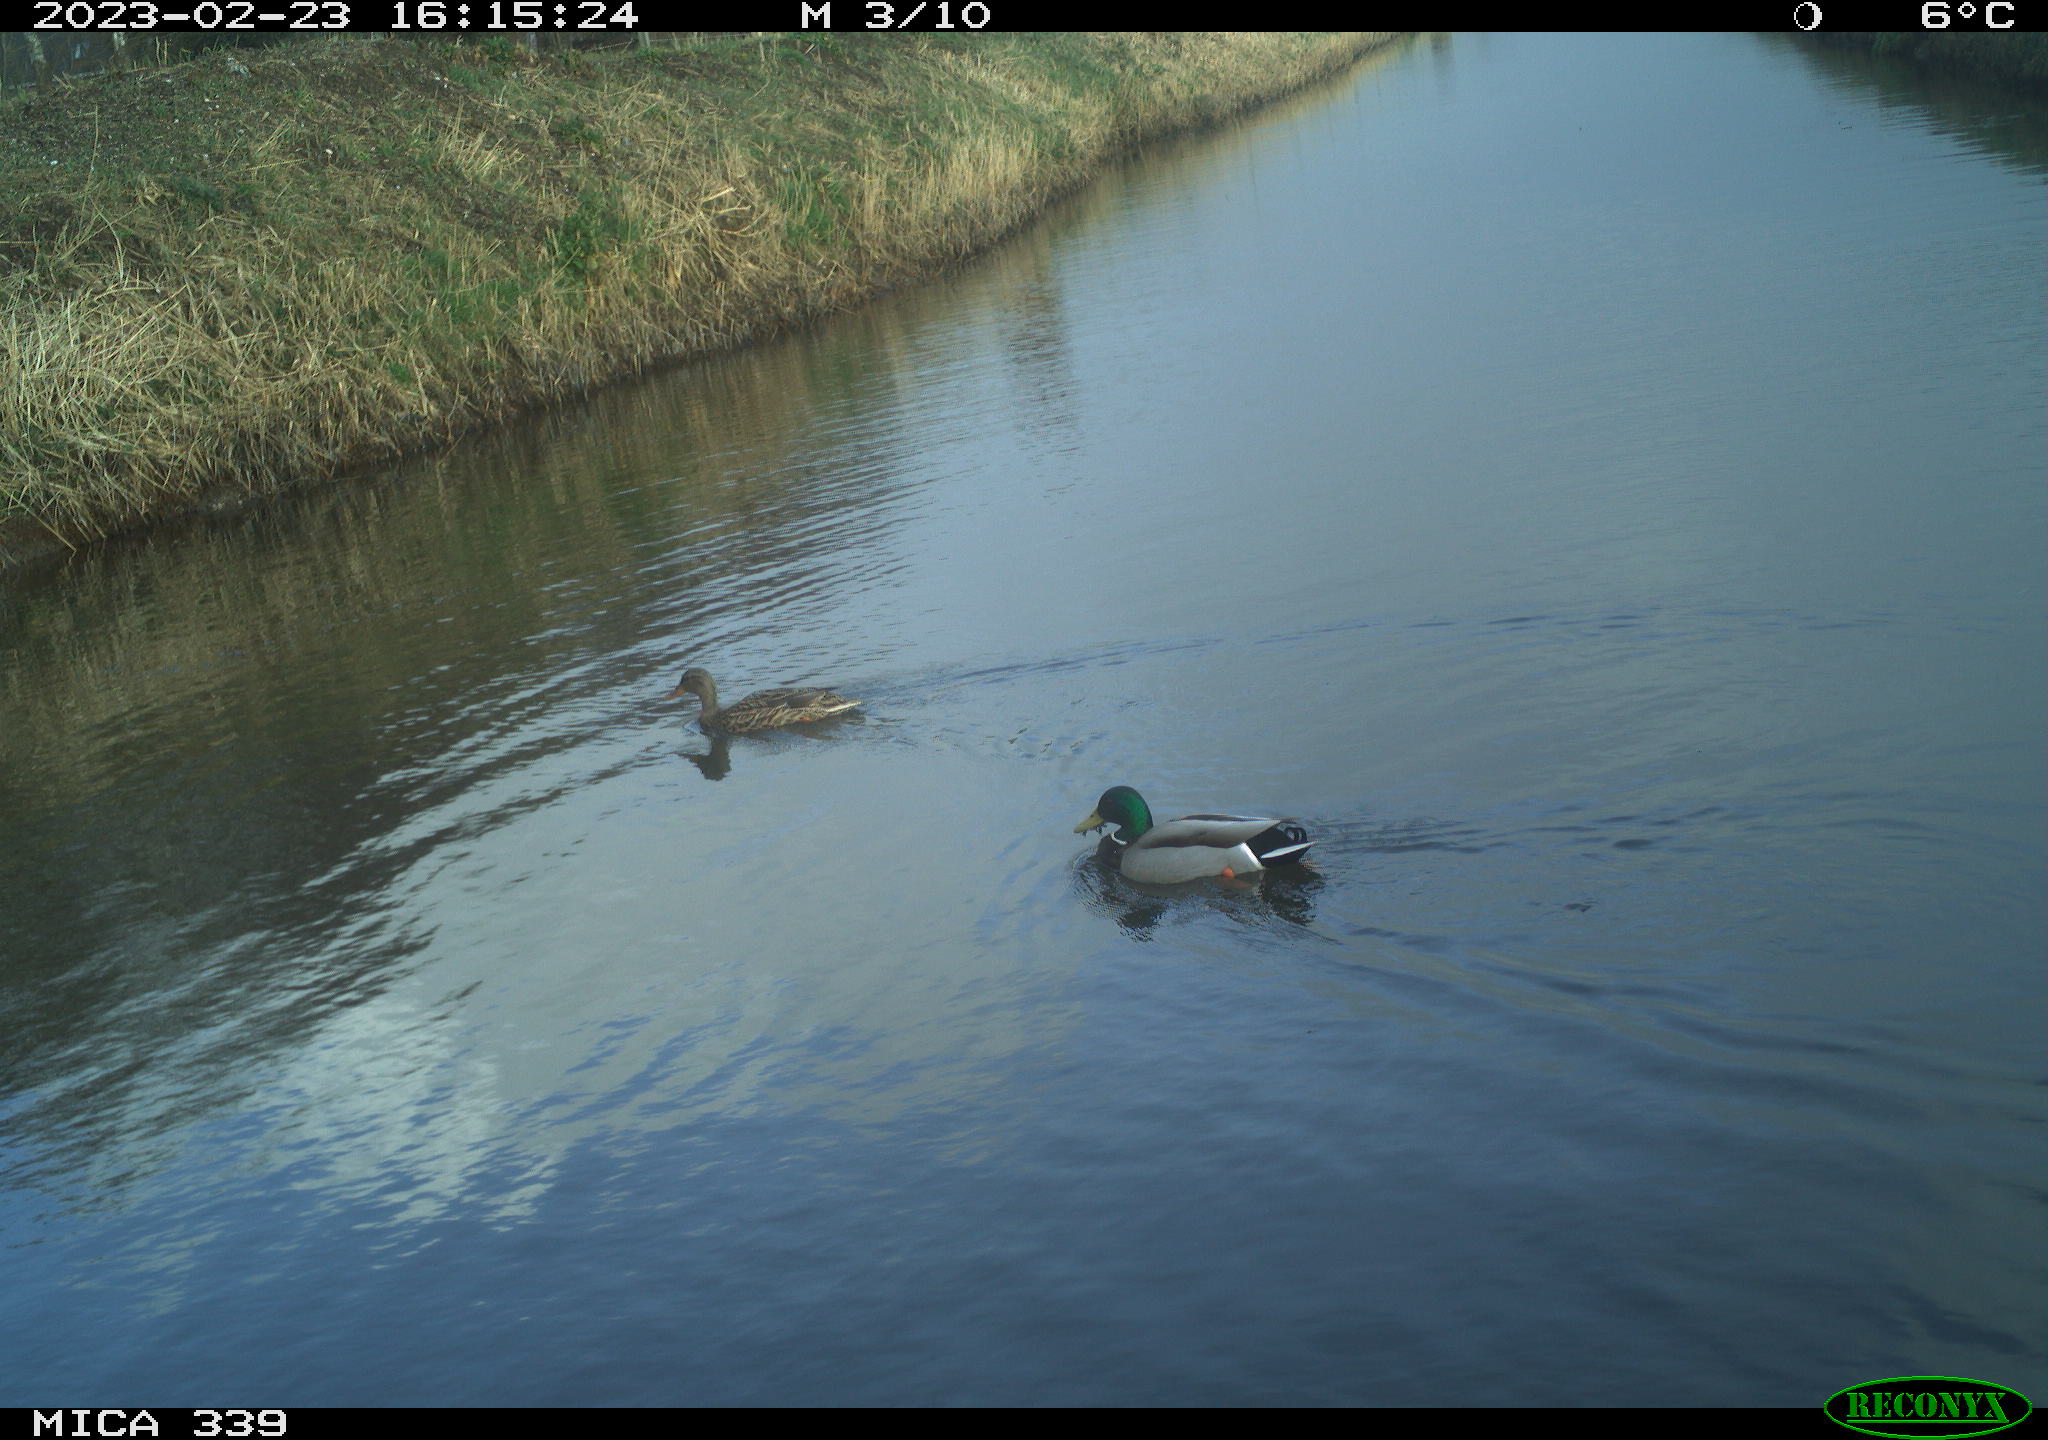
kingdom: Animalia
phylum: Chordata
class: Aves
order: Anseriformes
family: Anatidae
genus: Anas
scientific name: Anas
